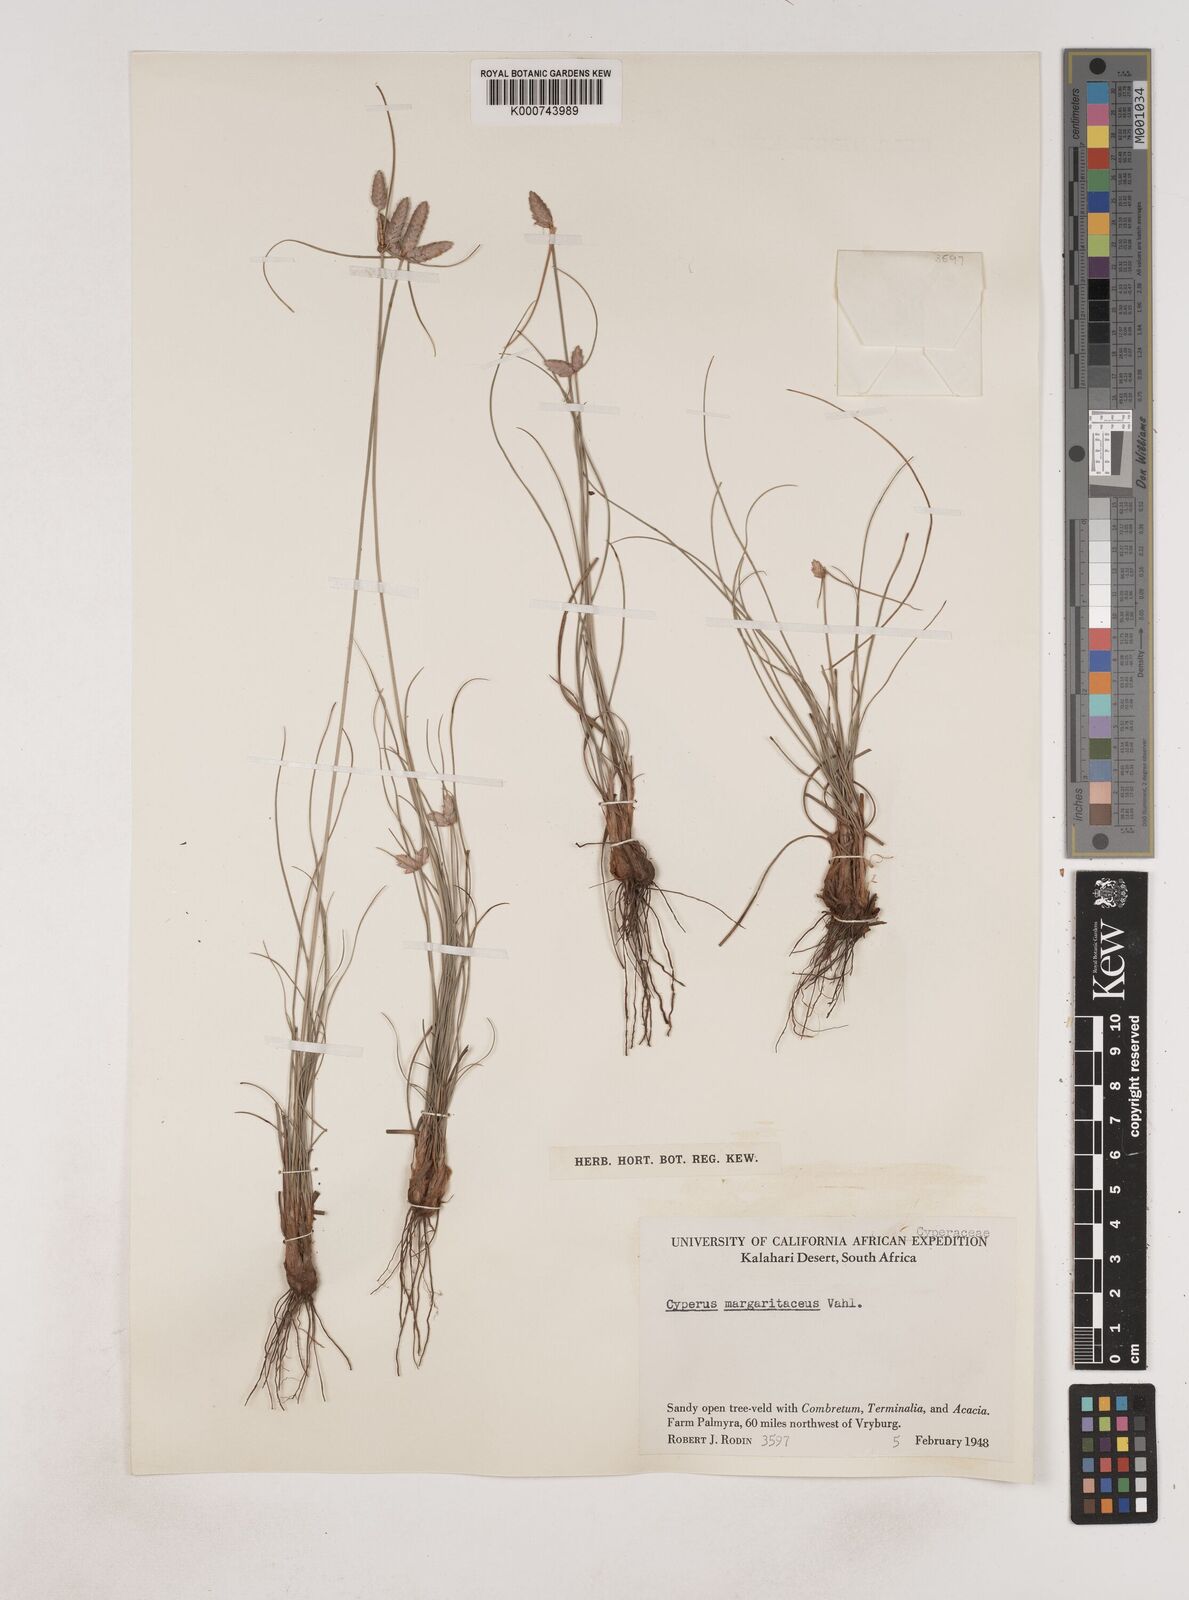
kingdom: Plantae
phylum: Tracheophyta
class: Liliopsida
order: Poales
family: Cyperaceae
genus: Cyperus
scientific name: Cyperus margaritaceus
